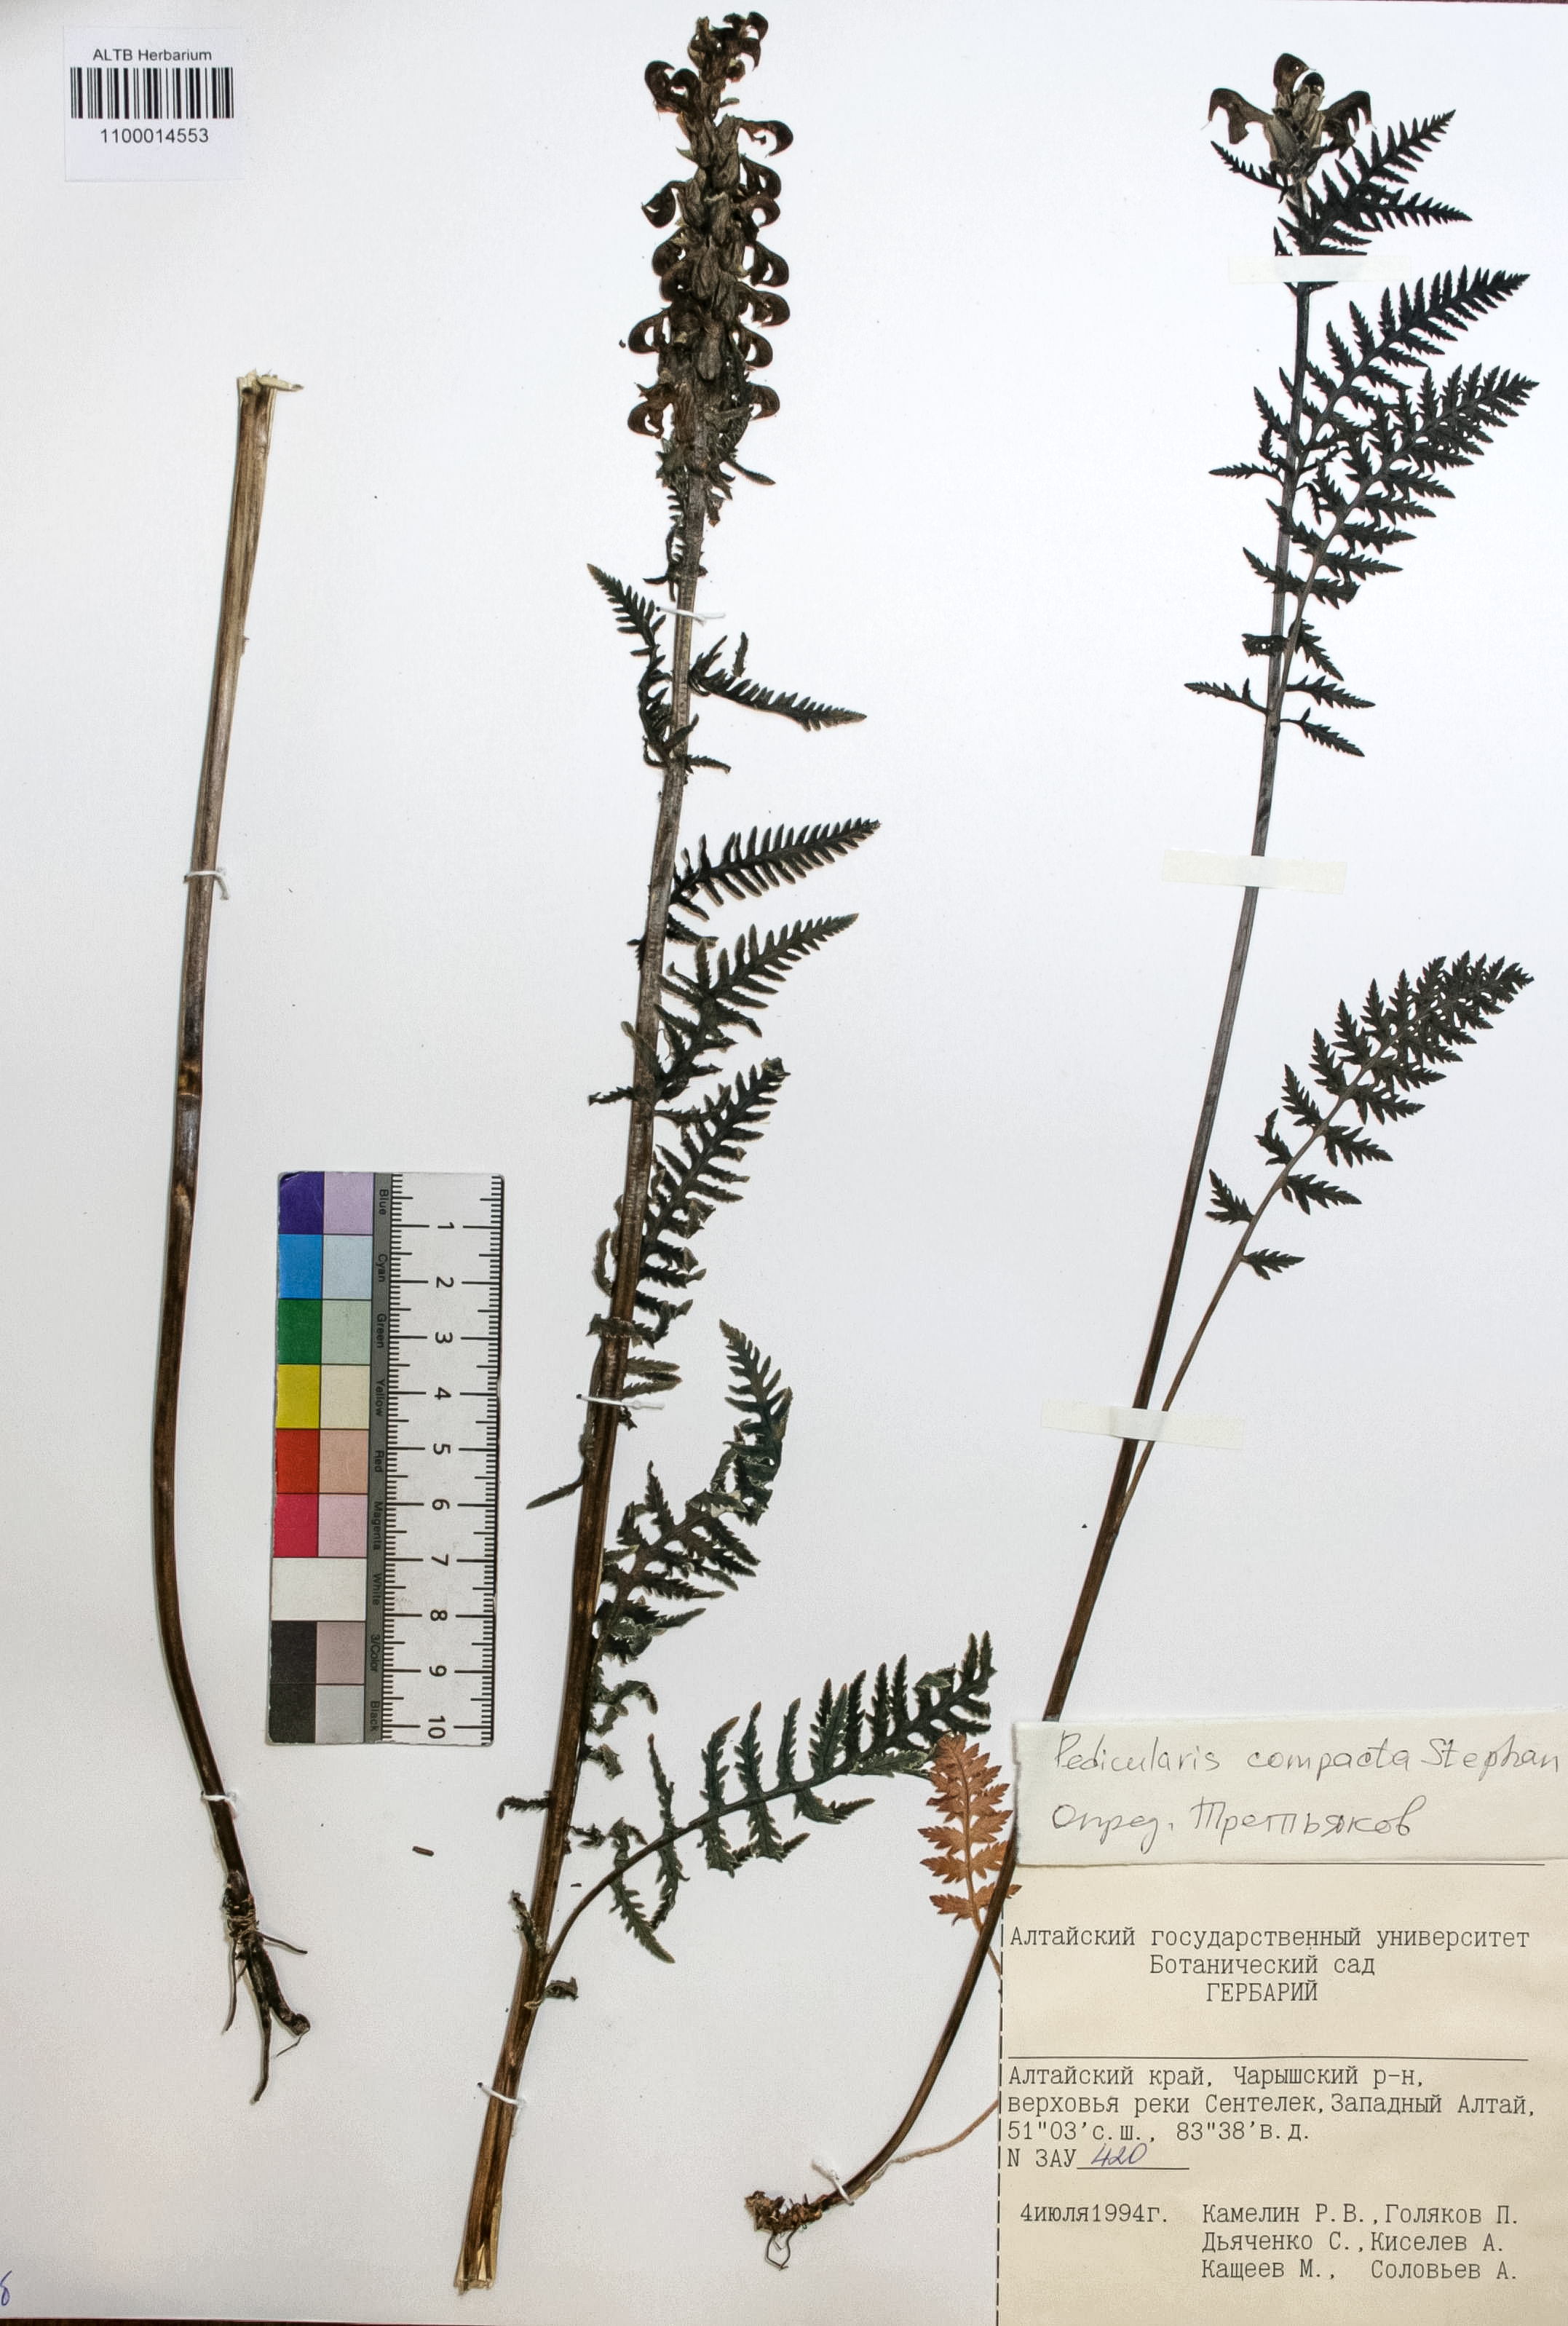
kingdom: Plantae
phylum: Tracheophyta
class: Magnoliopsida
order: Lamiales
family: Orobanchaceae
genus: Pedicularis
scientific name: Pedicularis compacta
